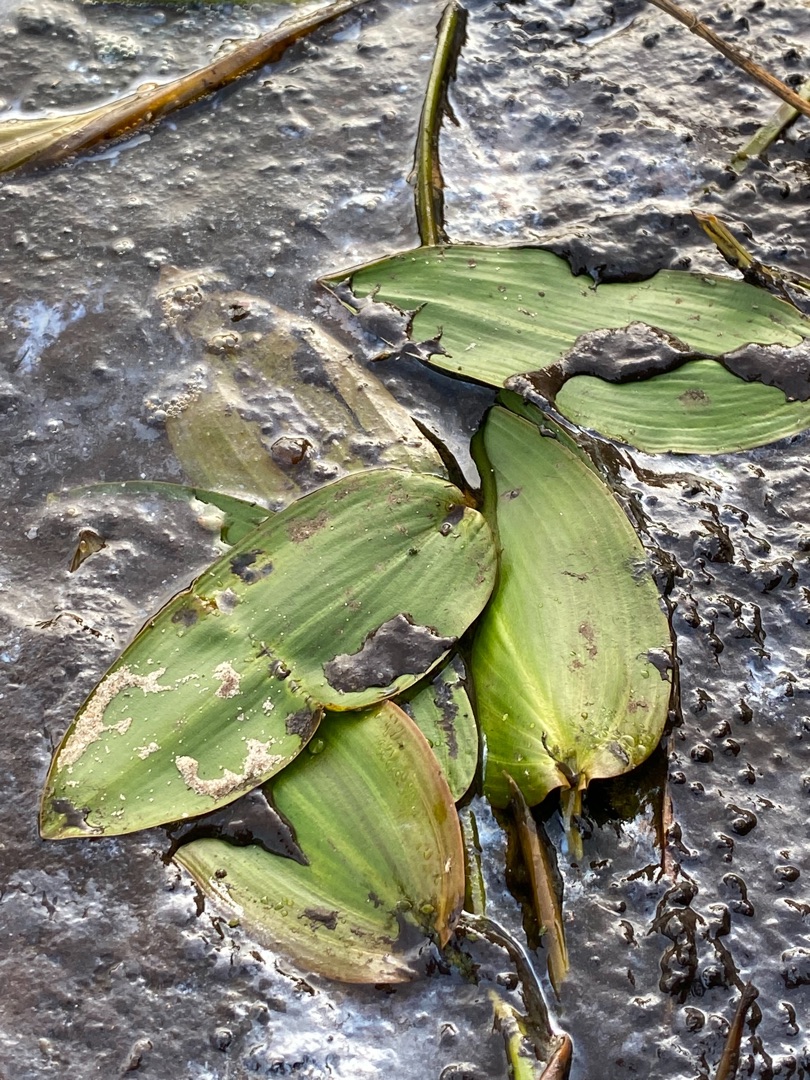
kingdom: Plantae
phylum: Tracheophyta
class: Liliopsida
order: Alismatales
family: Potamogetonaceae
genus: Potamogeton
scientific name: Potamogeton natans
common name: Svømmende vandaks
